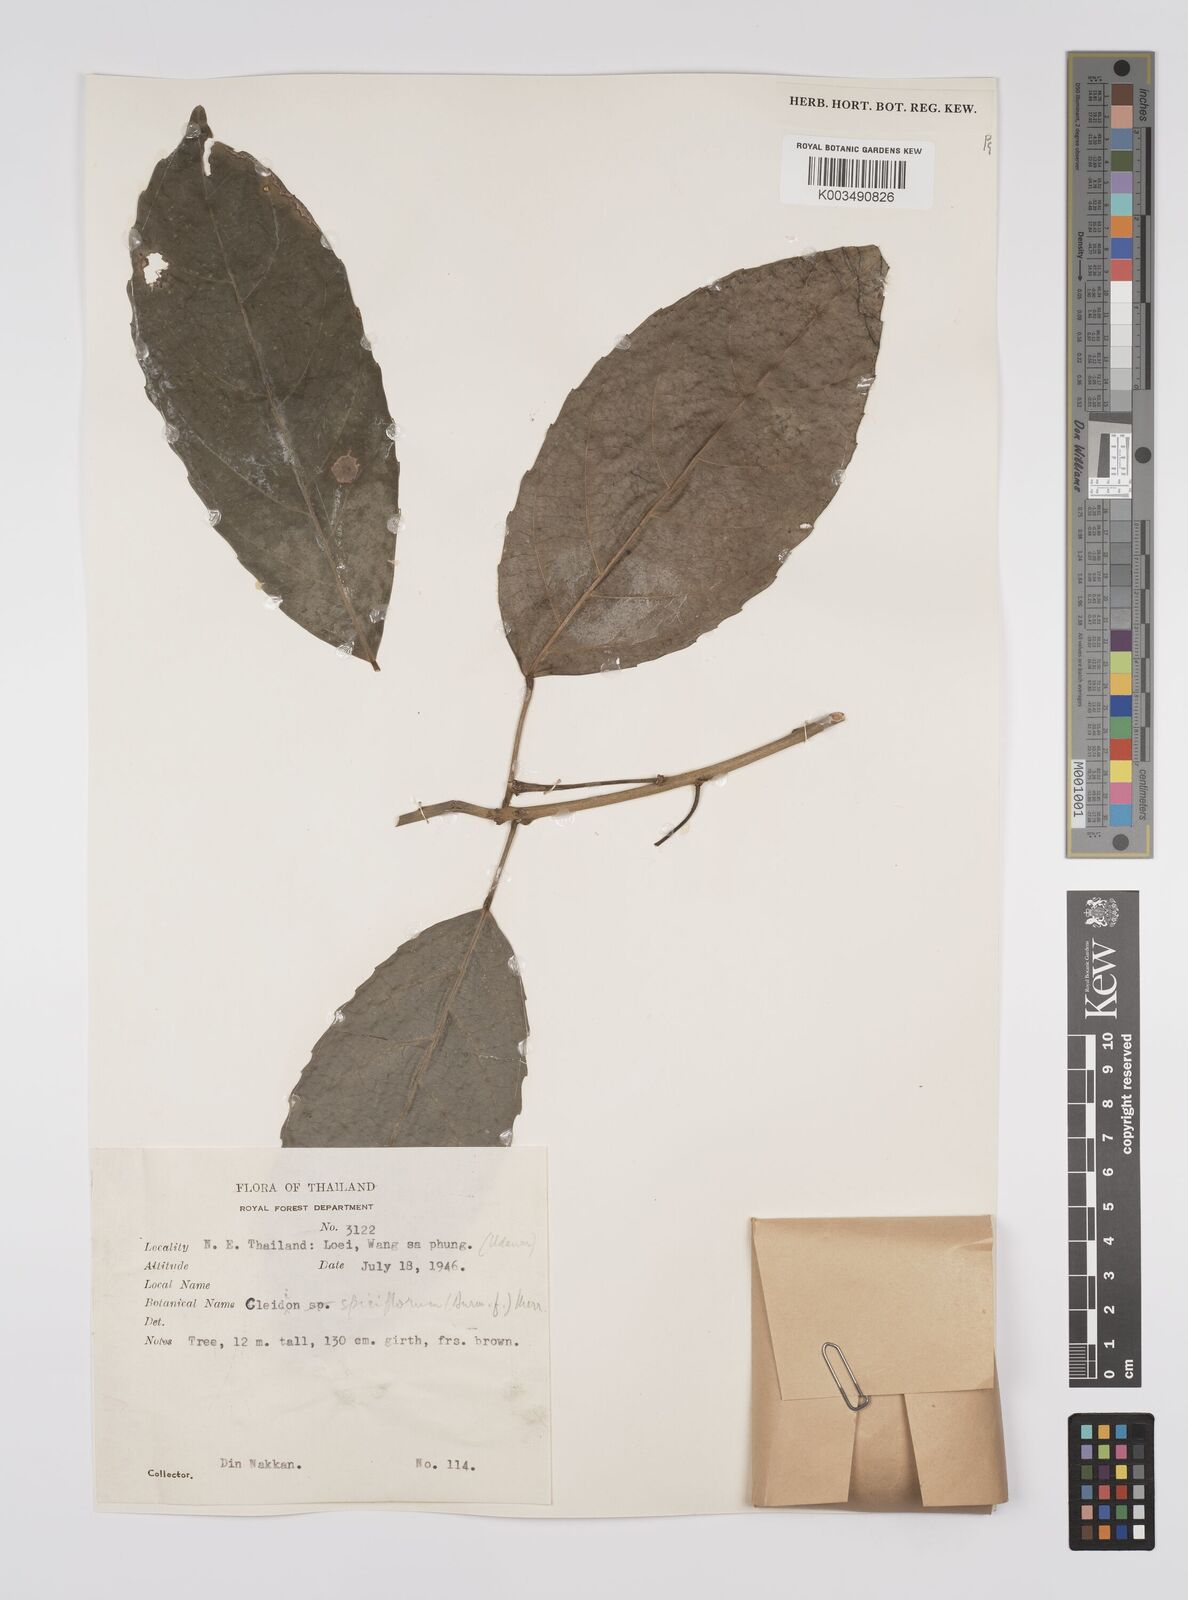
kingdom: Plantae
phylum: Tracheophyta
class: Magnoliopsida
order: Malpighiales
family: Euphorbiaceae
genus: Acalypha
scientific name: Acalypha spiciflora
